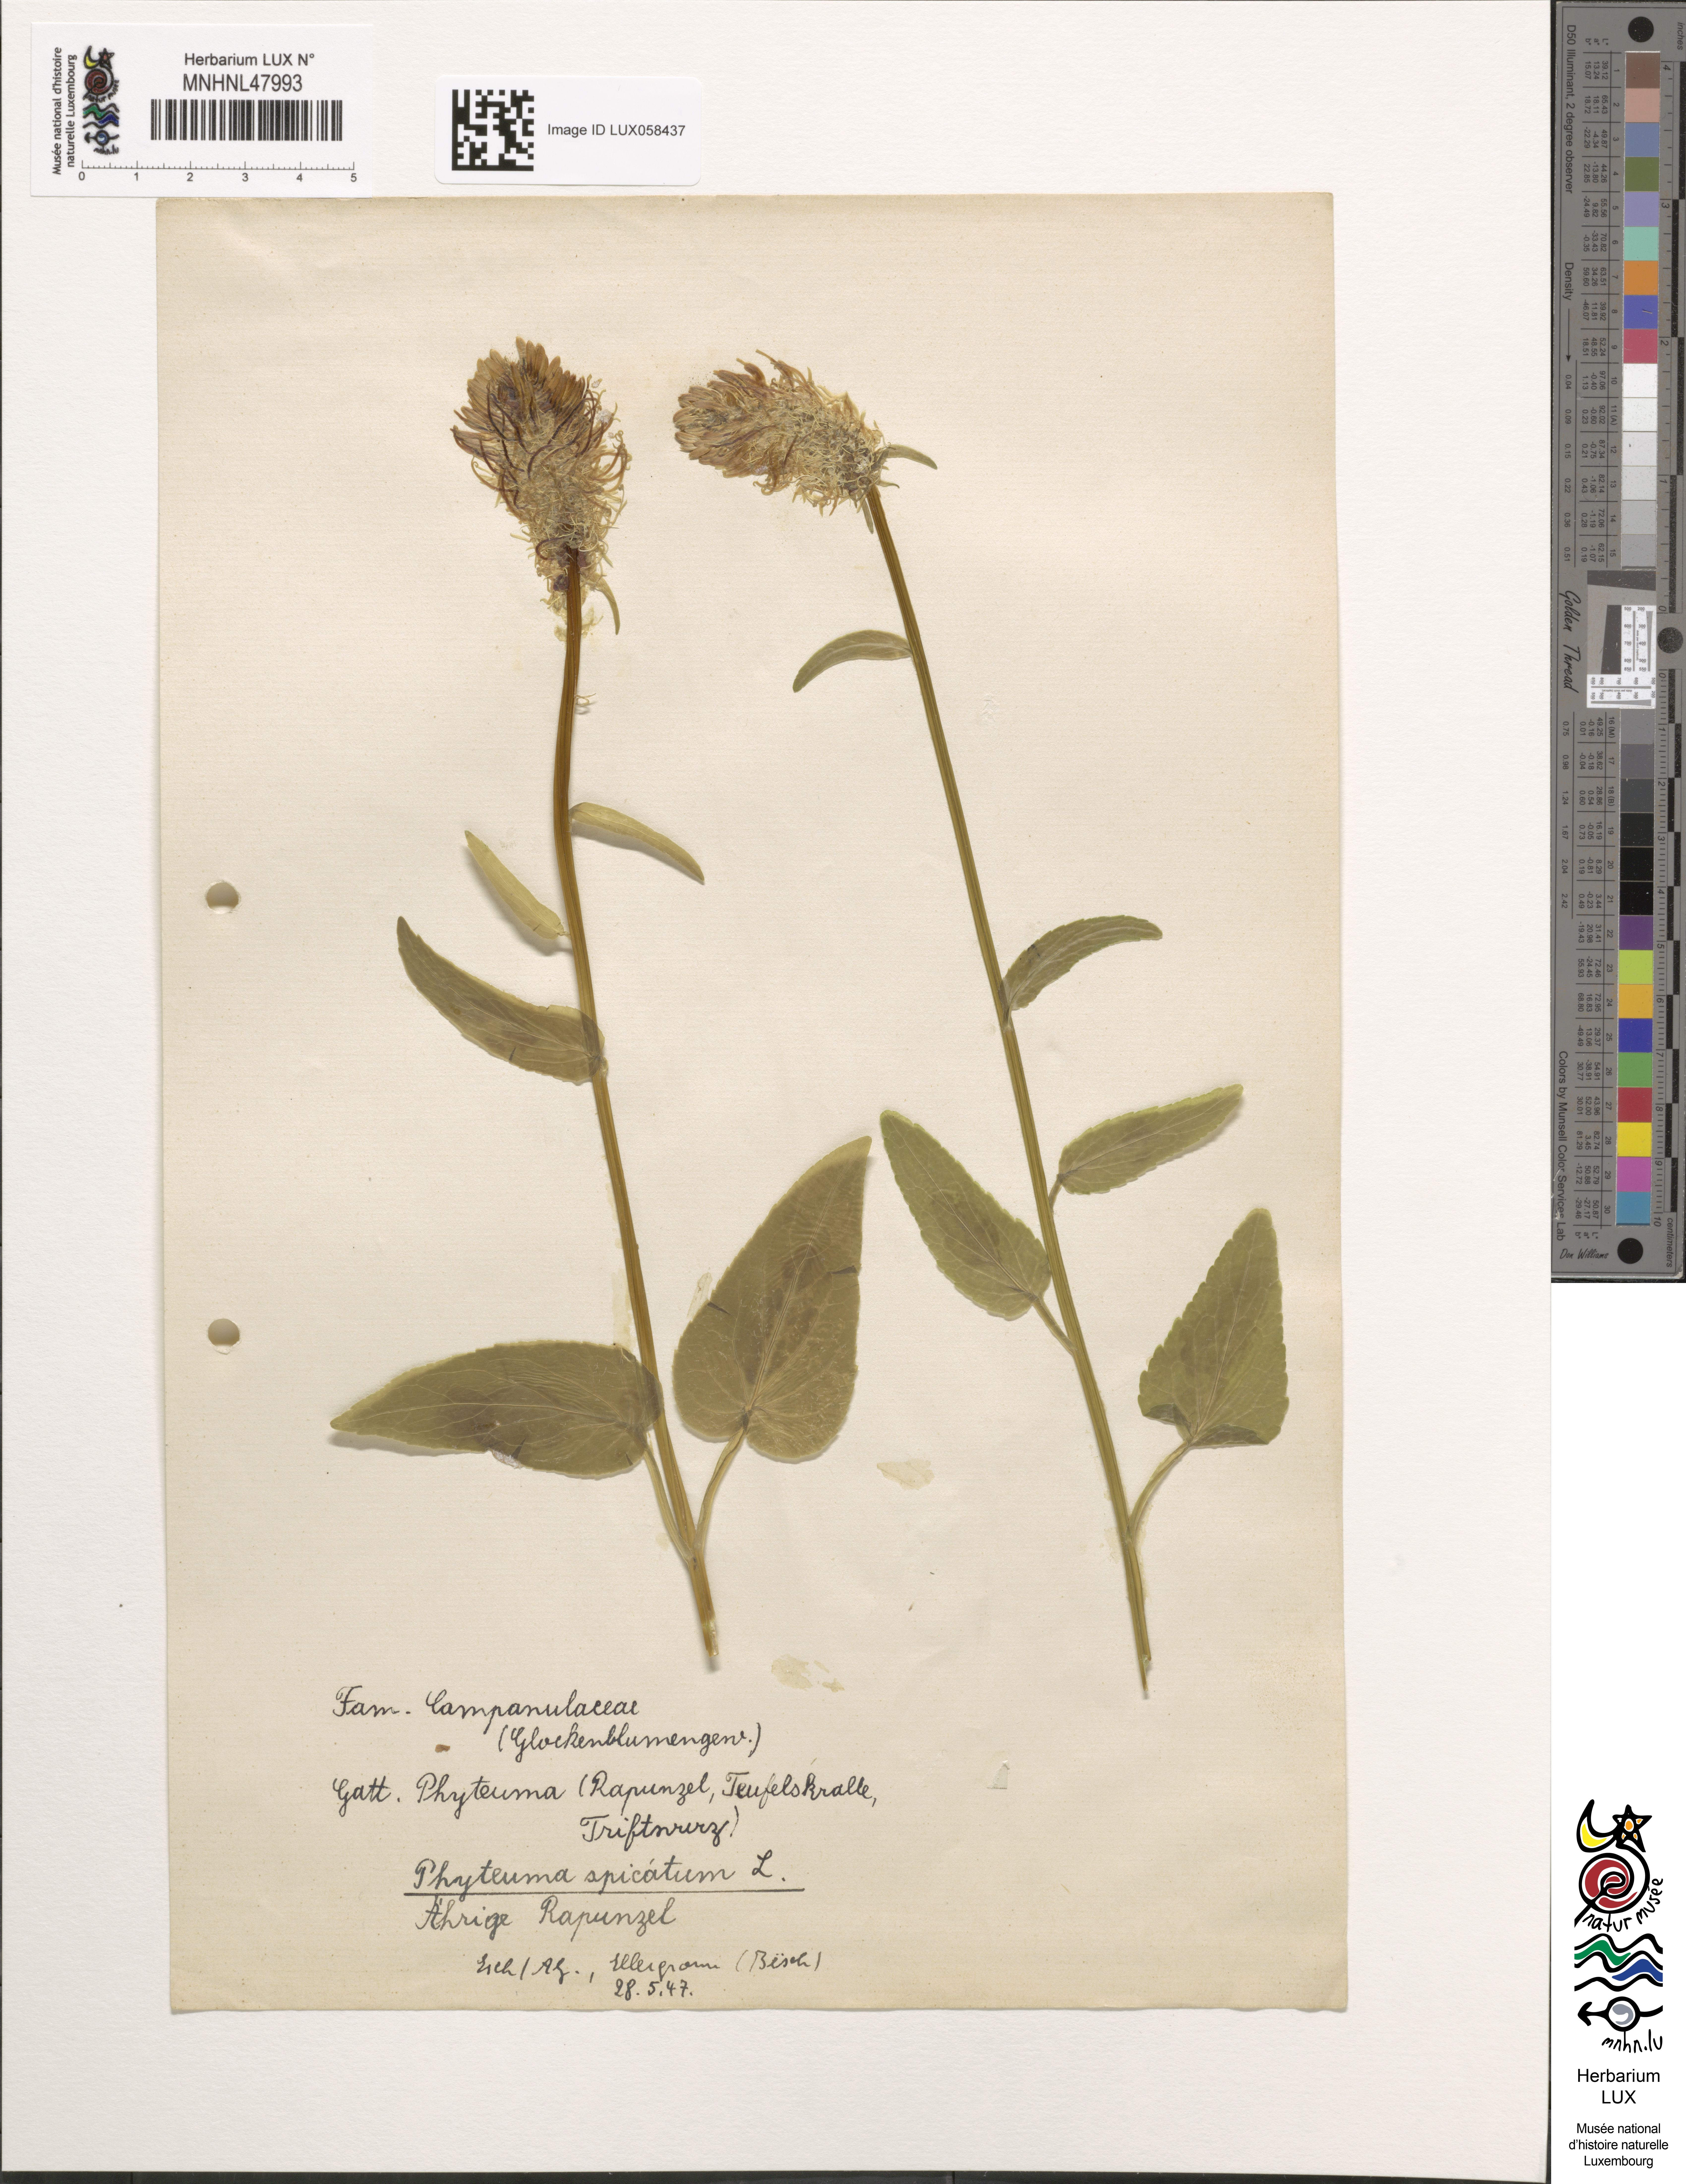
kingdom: Plantae
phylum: Tracheophyta
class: Magnoliopsida
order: Asterales
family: Campanulaceae
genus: Phyteuma
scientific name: Phyteuma spicatum
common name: Spiked rampion
